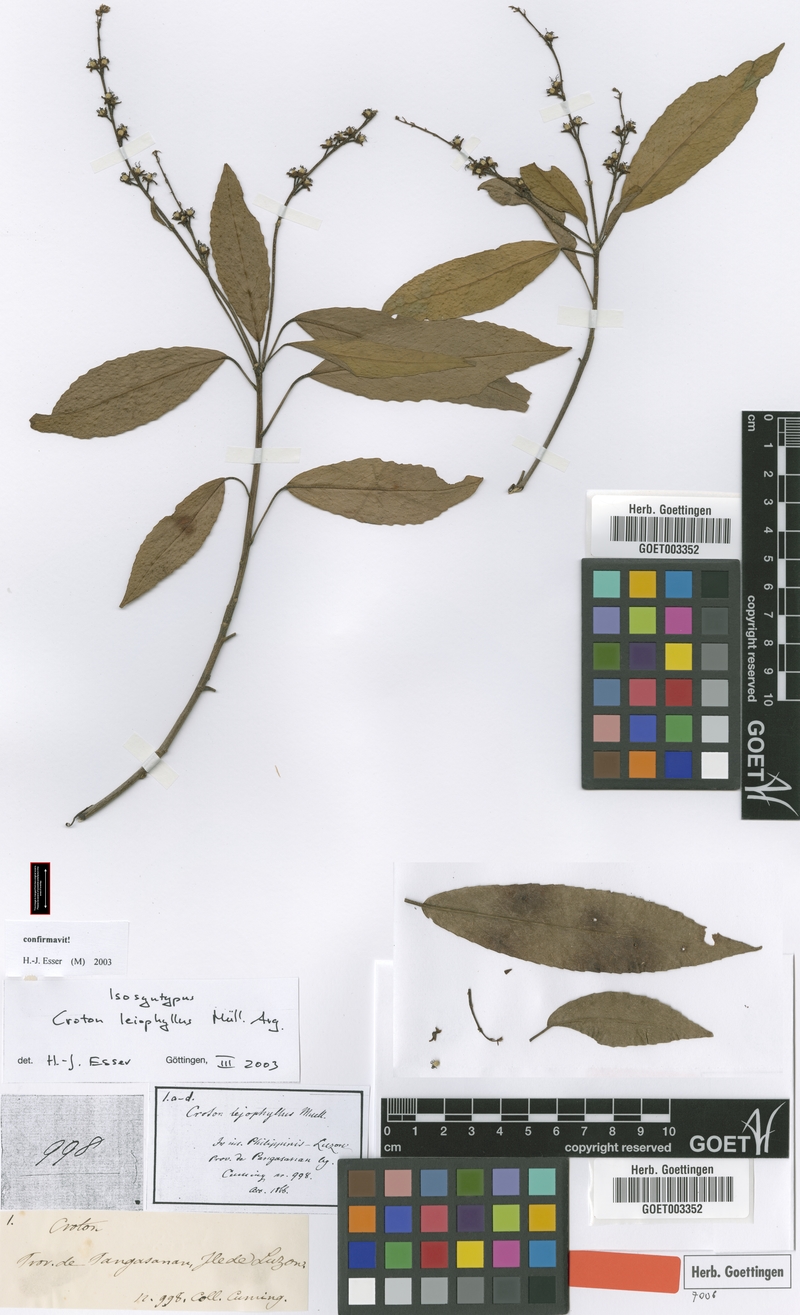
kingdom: Plantae
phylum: Tracheophyta
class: Magnoliopsida
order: Malpighiales
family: Euphorbiaceae
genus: Croton
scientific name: Croton leiophyllus
